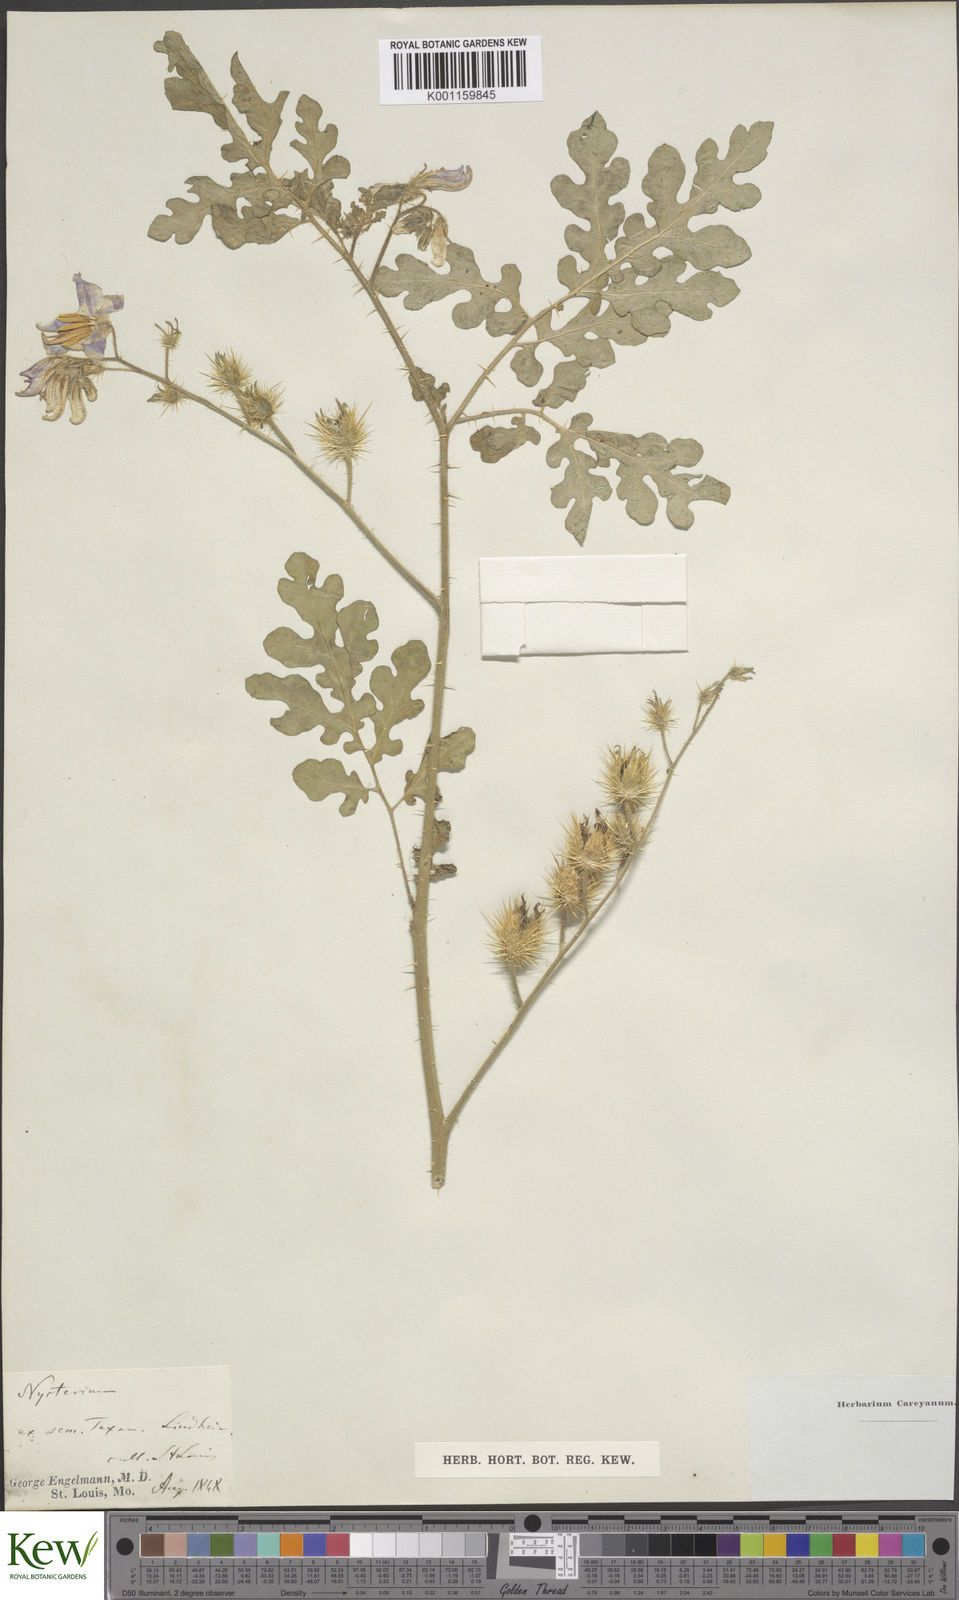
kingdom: Plantae
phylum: Tracheophyta
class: Magnoliopsida
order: Solanales
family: Solanaceae
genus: Solanum
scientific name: Solanum heterodoxum
